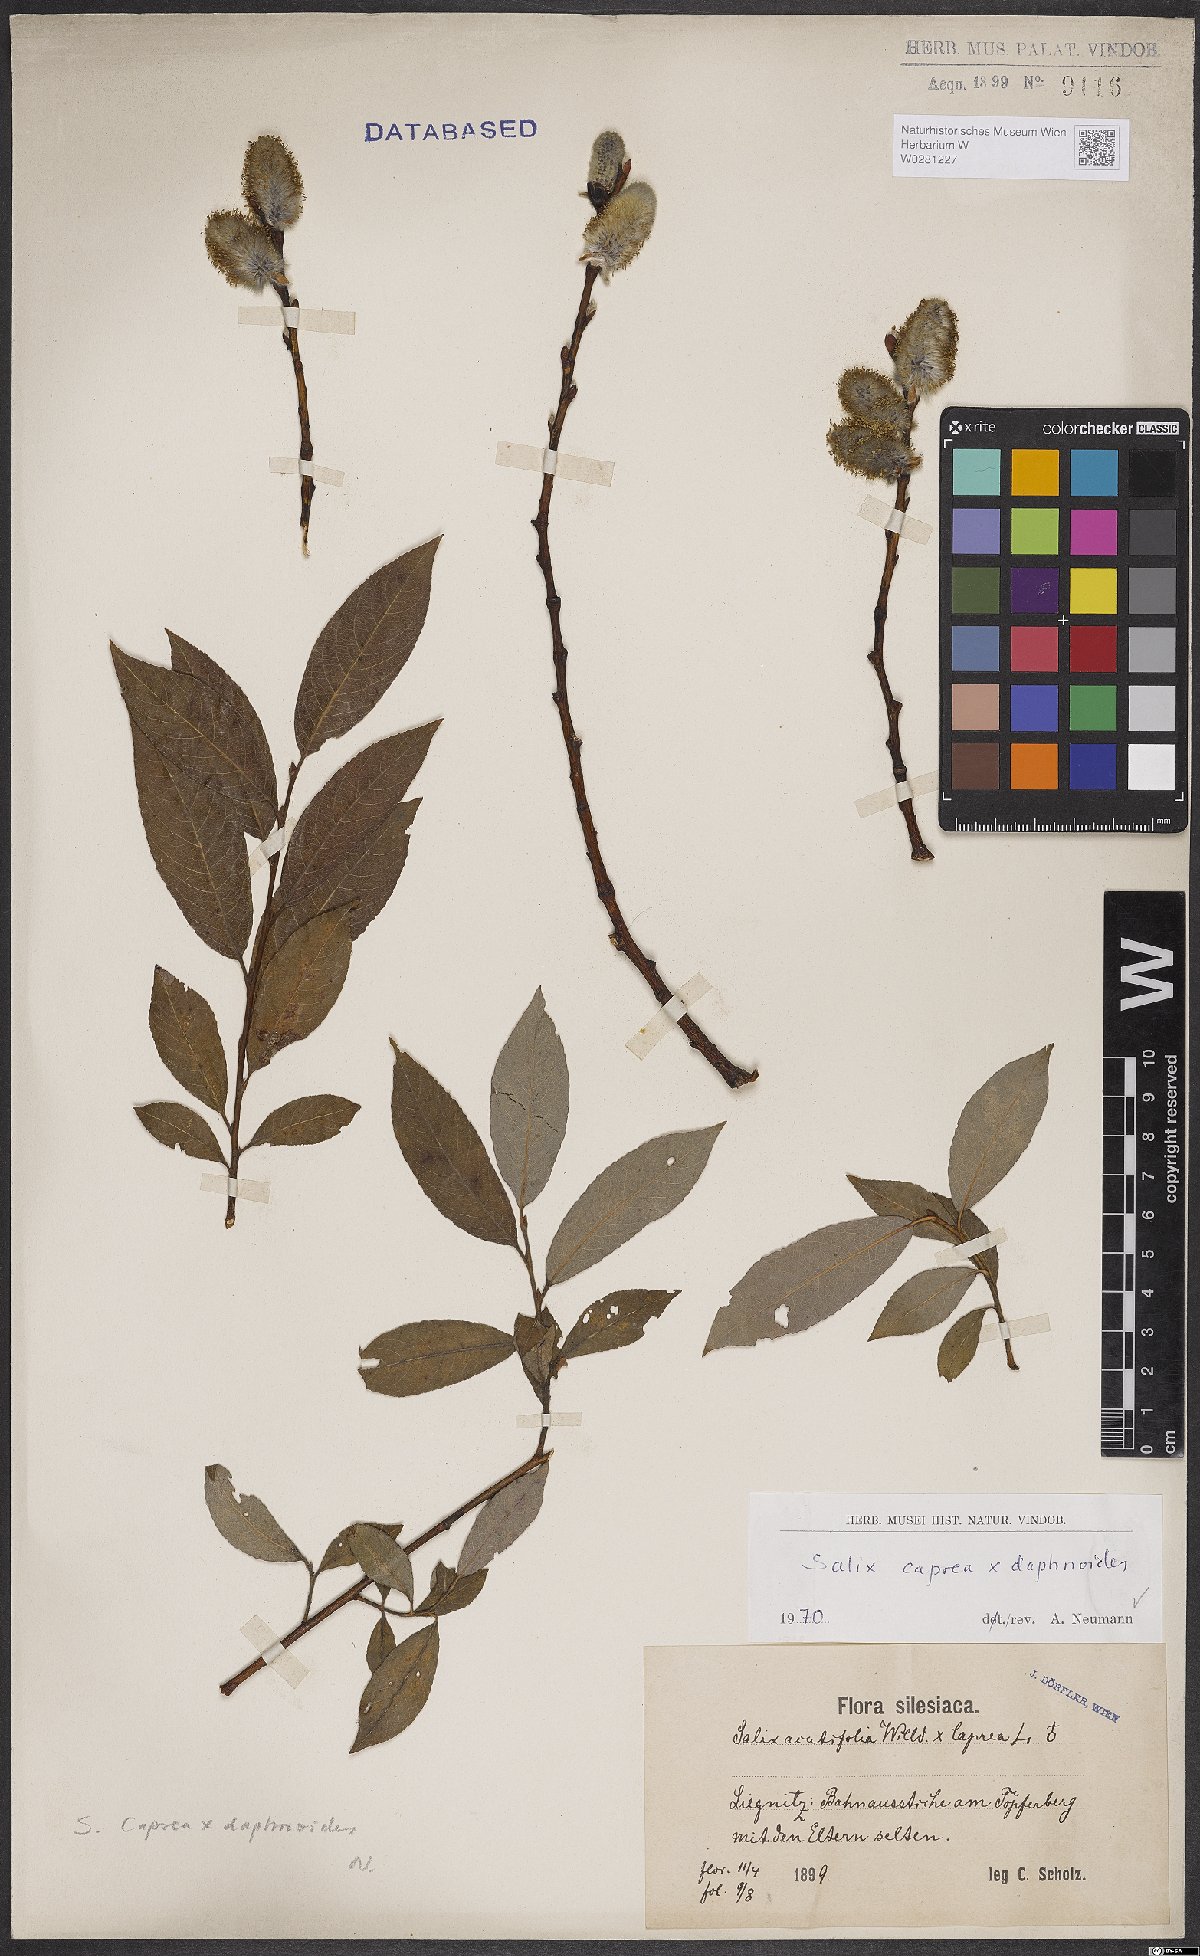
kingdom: Plantae
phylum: Tracheophyta
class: Magnoliopsida
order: Malpighiales
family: Salicaceae
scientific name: Salicaceae
